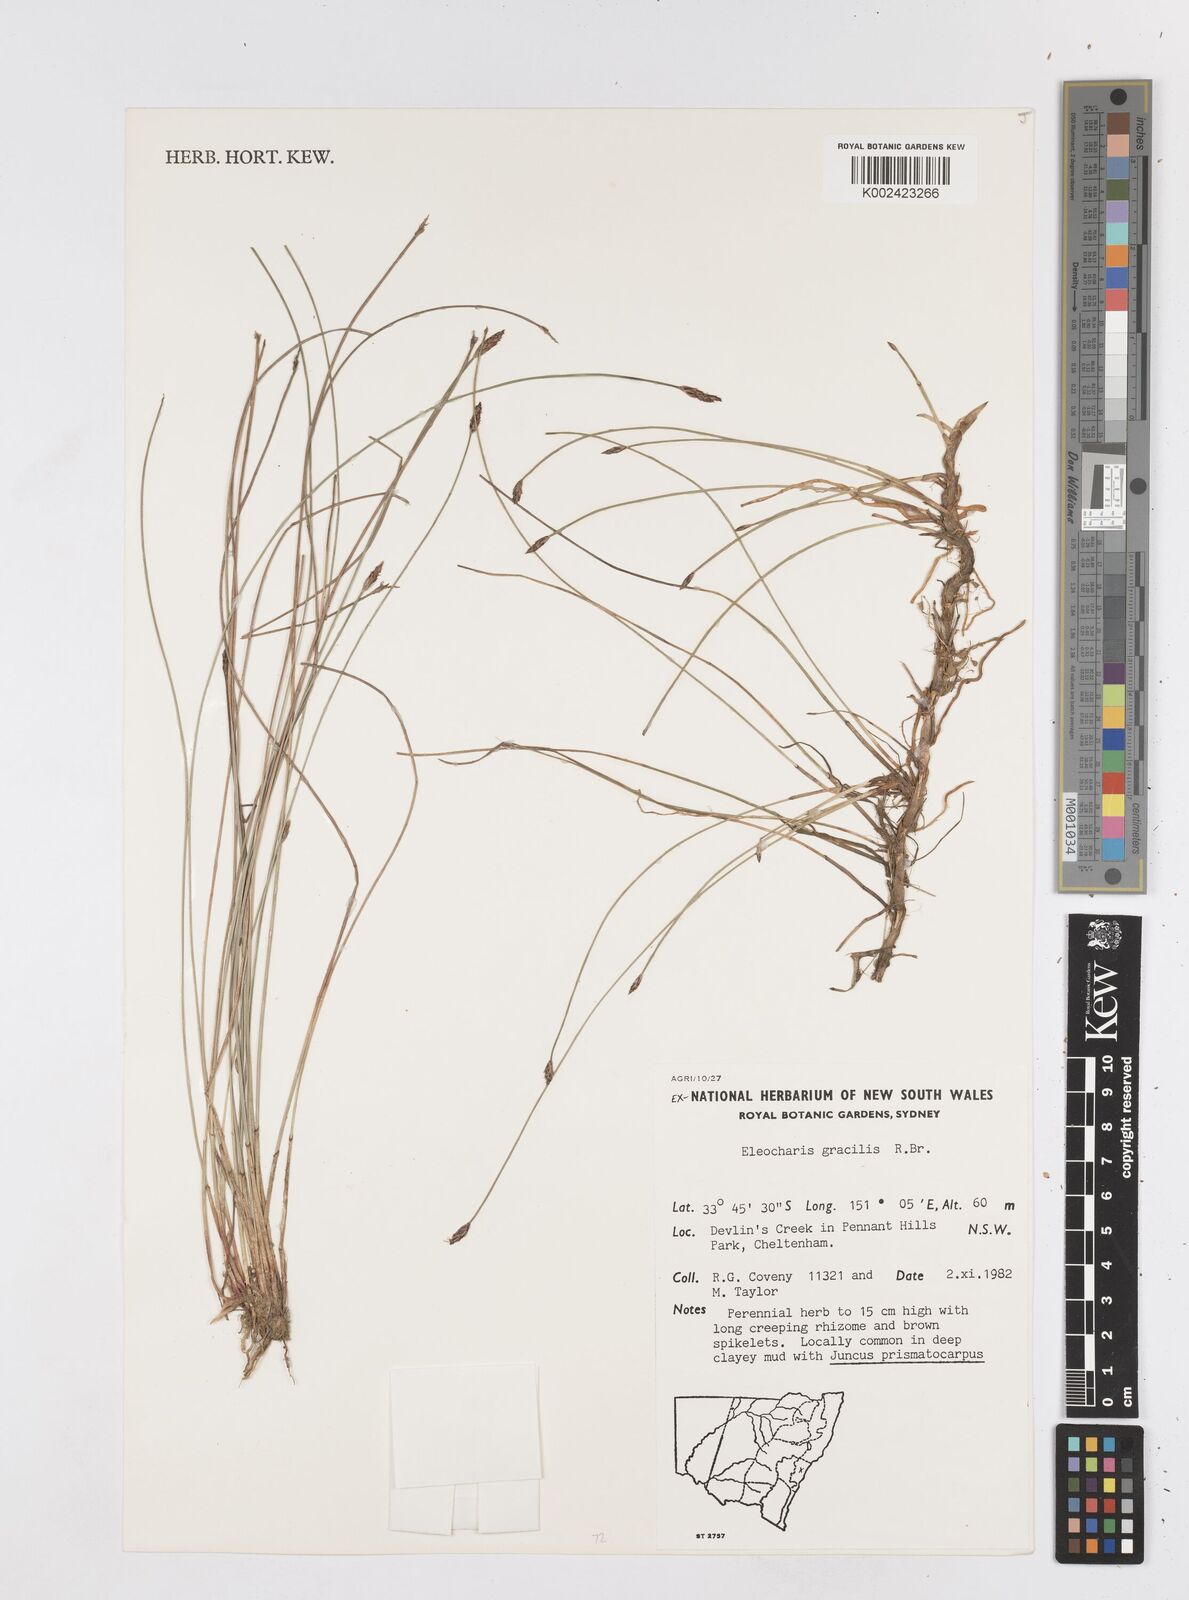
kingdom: Plantae
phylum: Tracheophyta
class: Liliopsida
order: Poales
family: Cyperaceae
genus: Eleocharis
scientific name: Eleocharis multicaulis
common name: Many-stalked spike-rush
